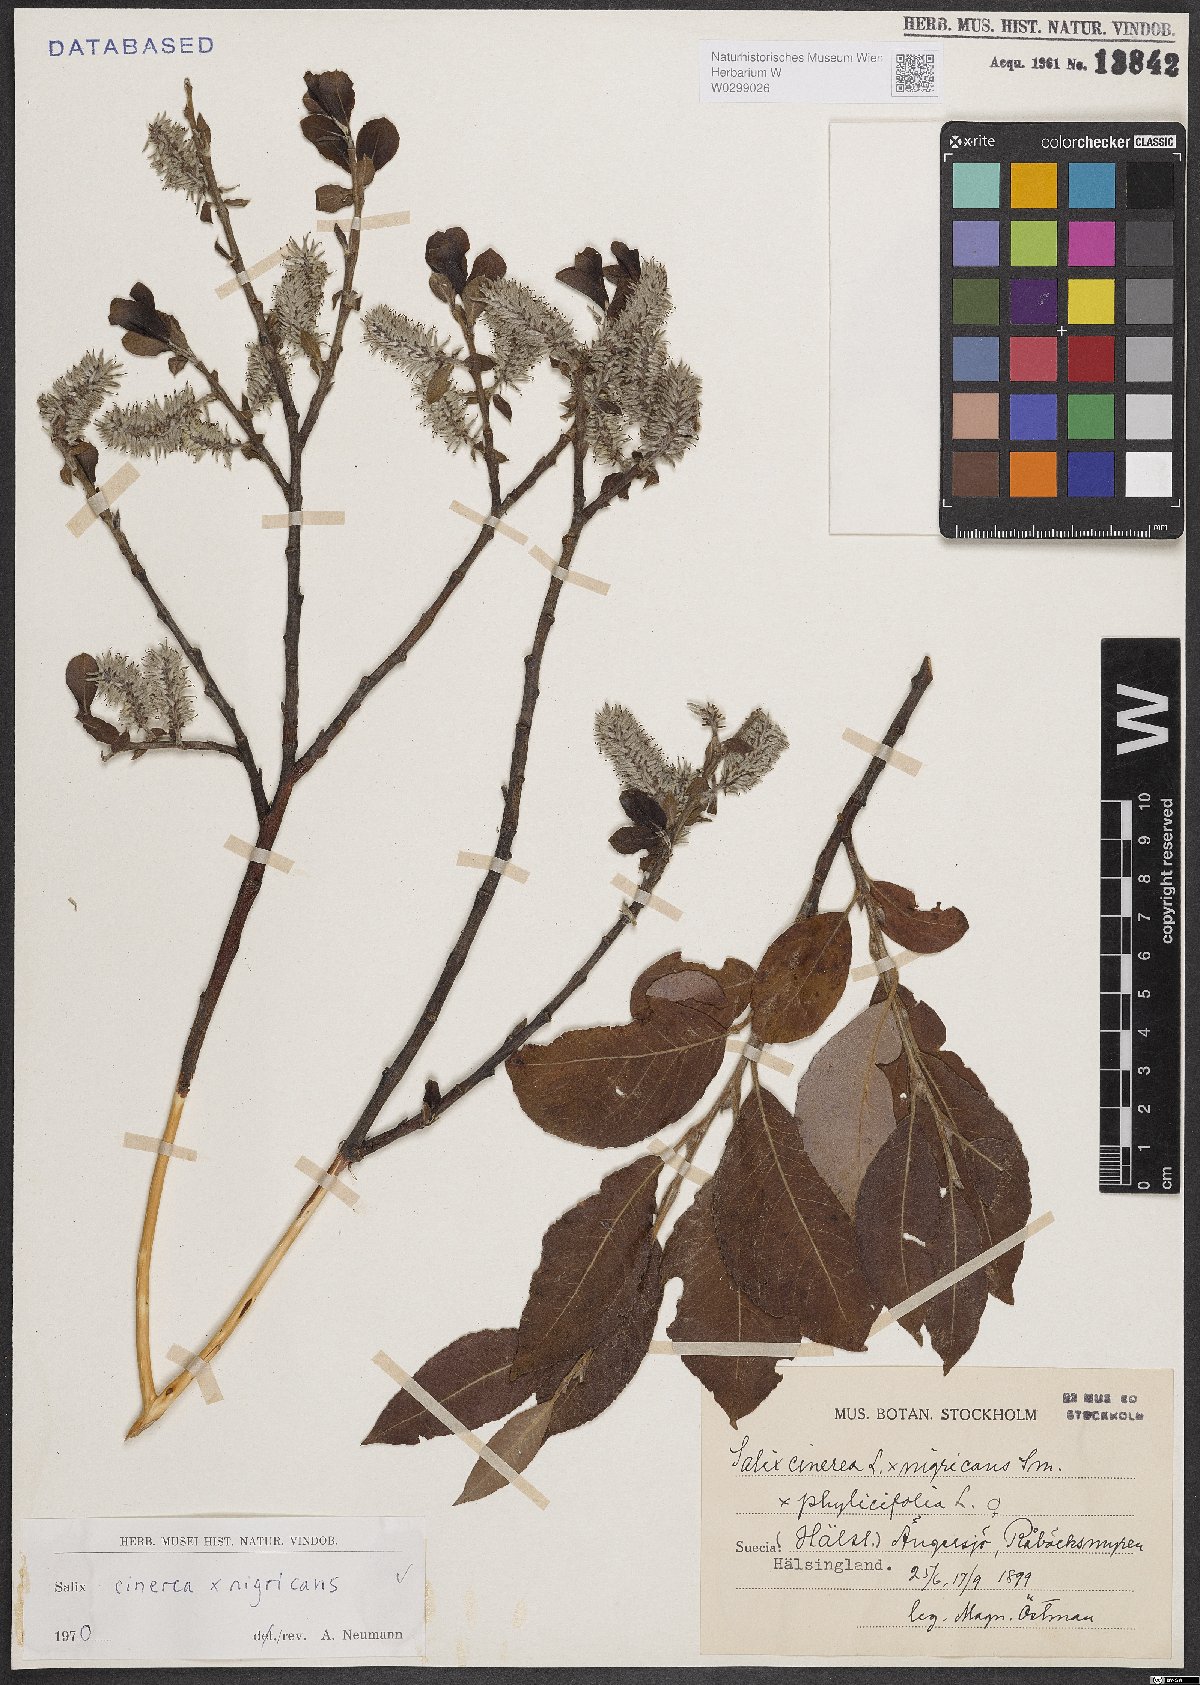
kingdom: Plantae
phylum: Tracheophyta
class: Magnoliopsida
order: Malpighiales
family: Salicaceae
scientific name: Salicaceae
